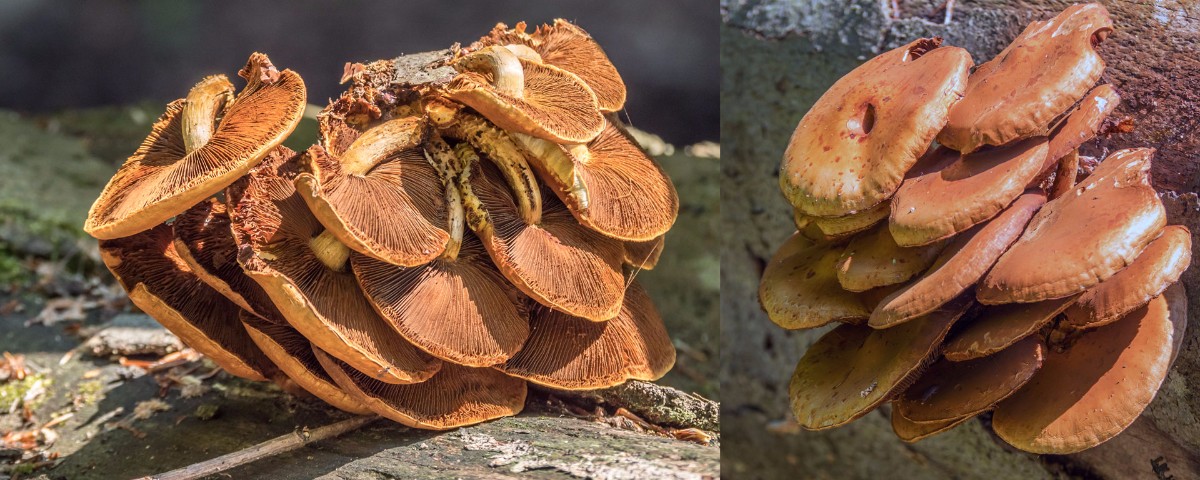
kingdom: Fungi
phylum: Basidiomycota
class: Agaricomycetes
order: Agaricales
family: Strophariaceae
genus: Pholiota
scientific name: Pholiota adiposa
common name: højtsiddende skælhat
